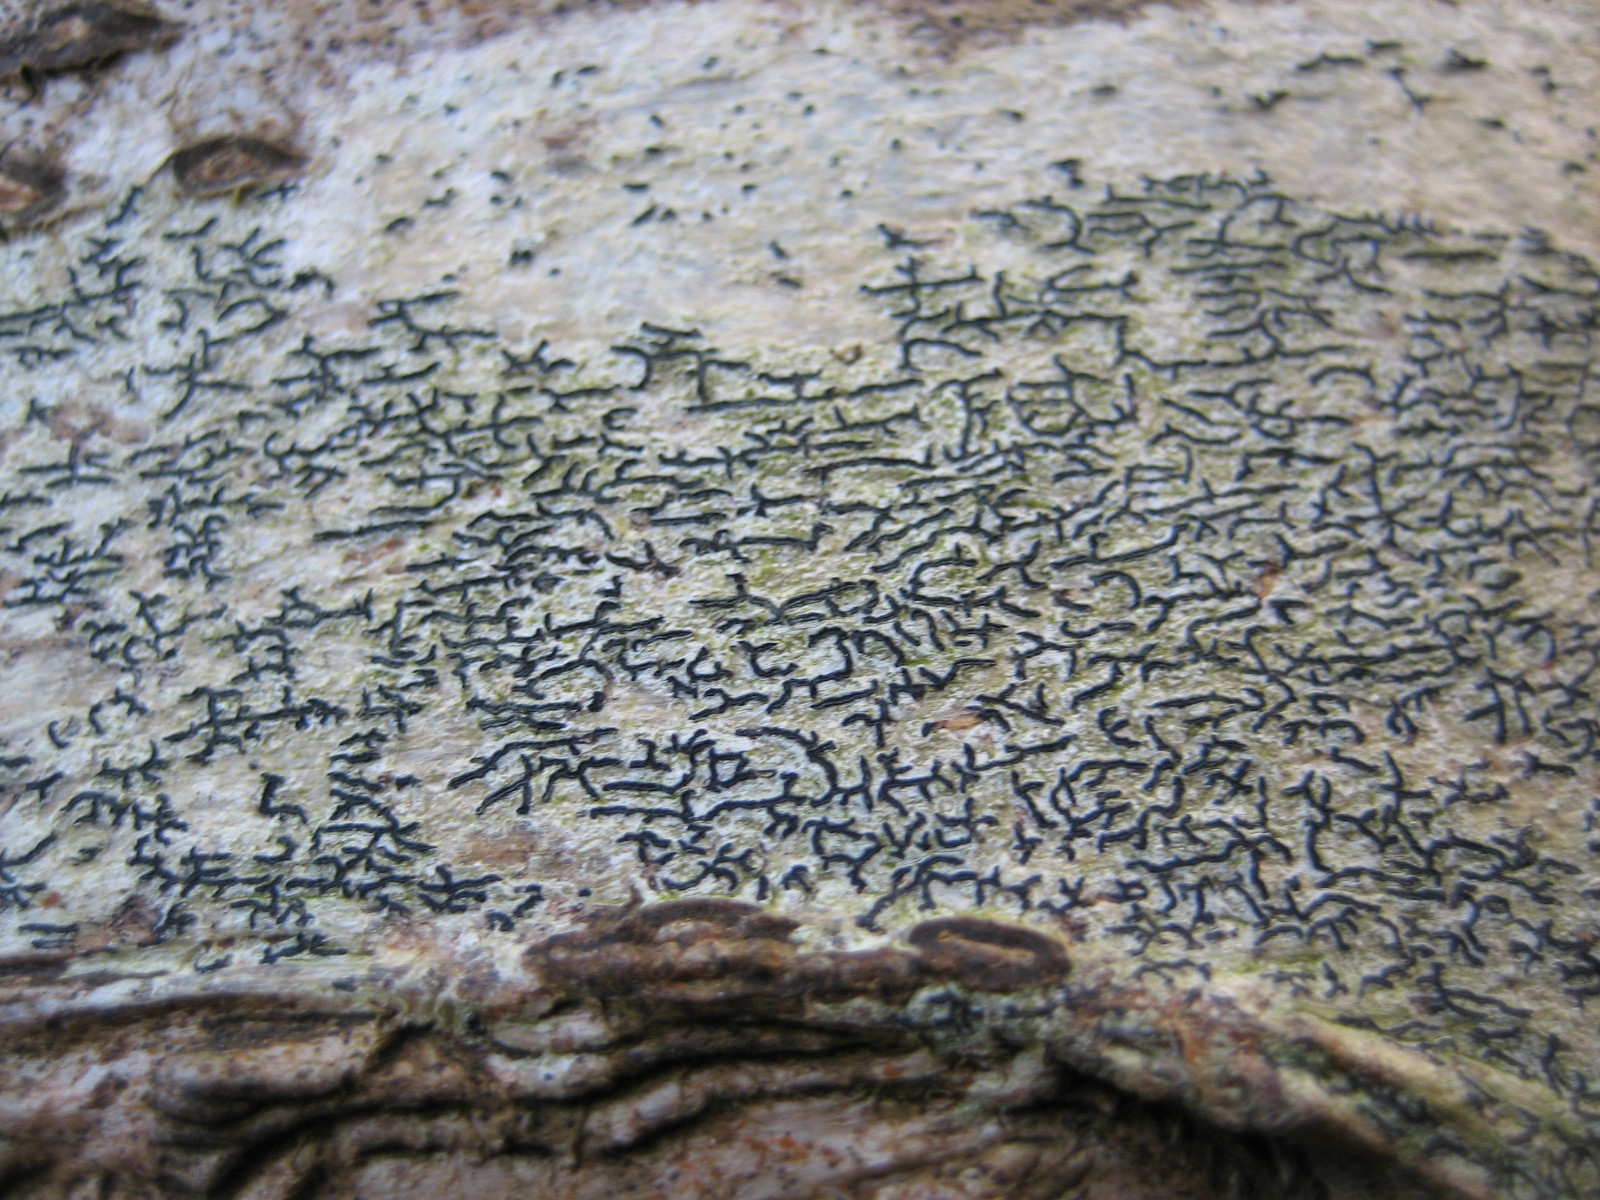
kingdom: Fungi
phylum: Ascomycota
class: Lecanoromycetes
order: Ostropales
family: Graphidaceae
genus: Graphis
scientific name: Graphis scripta
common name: almindelig skriftlav
